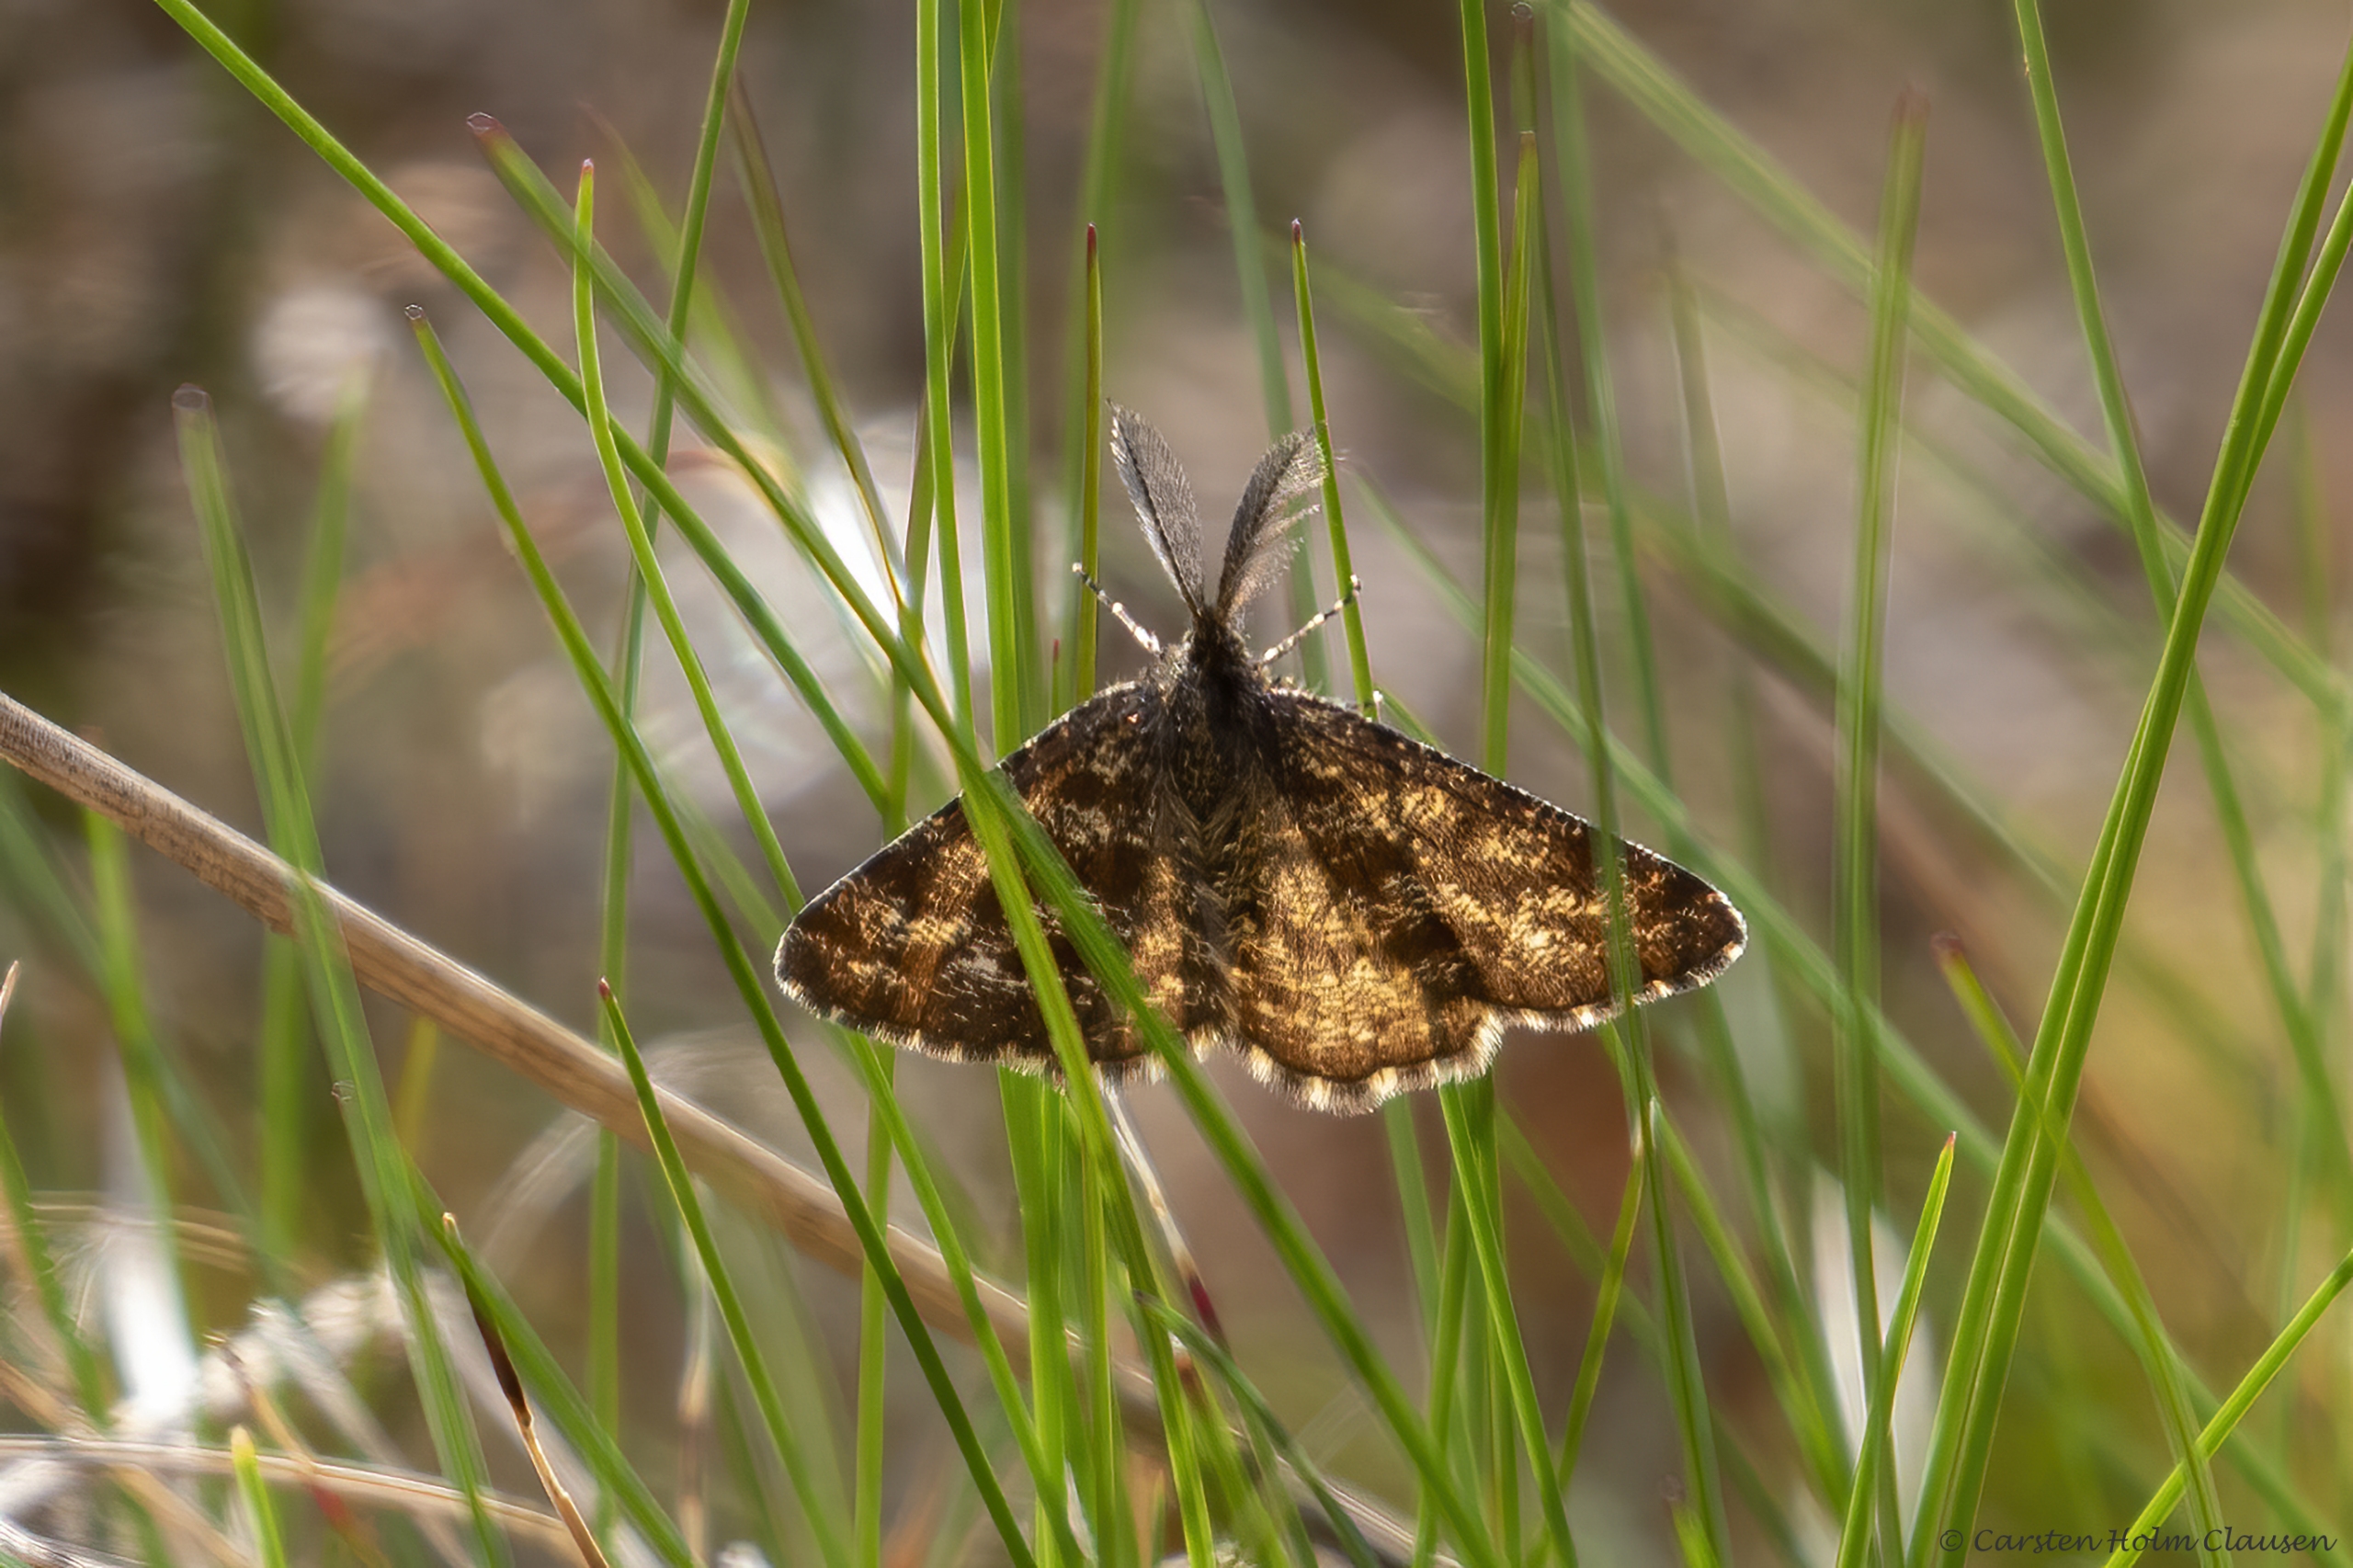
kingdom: Animalia
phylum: Arthropoda
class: Insecta
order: Lepidoptera
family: Geometridae
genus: Ematurga
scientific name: Ematurga atomaria
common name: Lyngmåler
